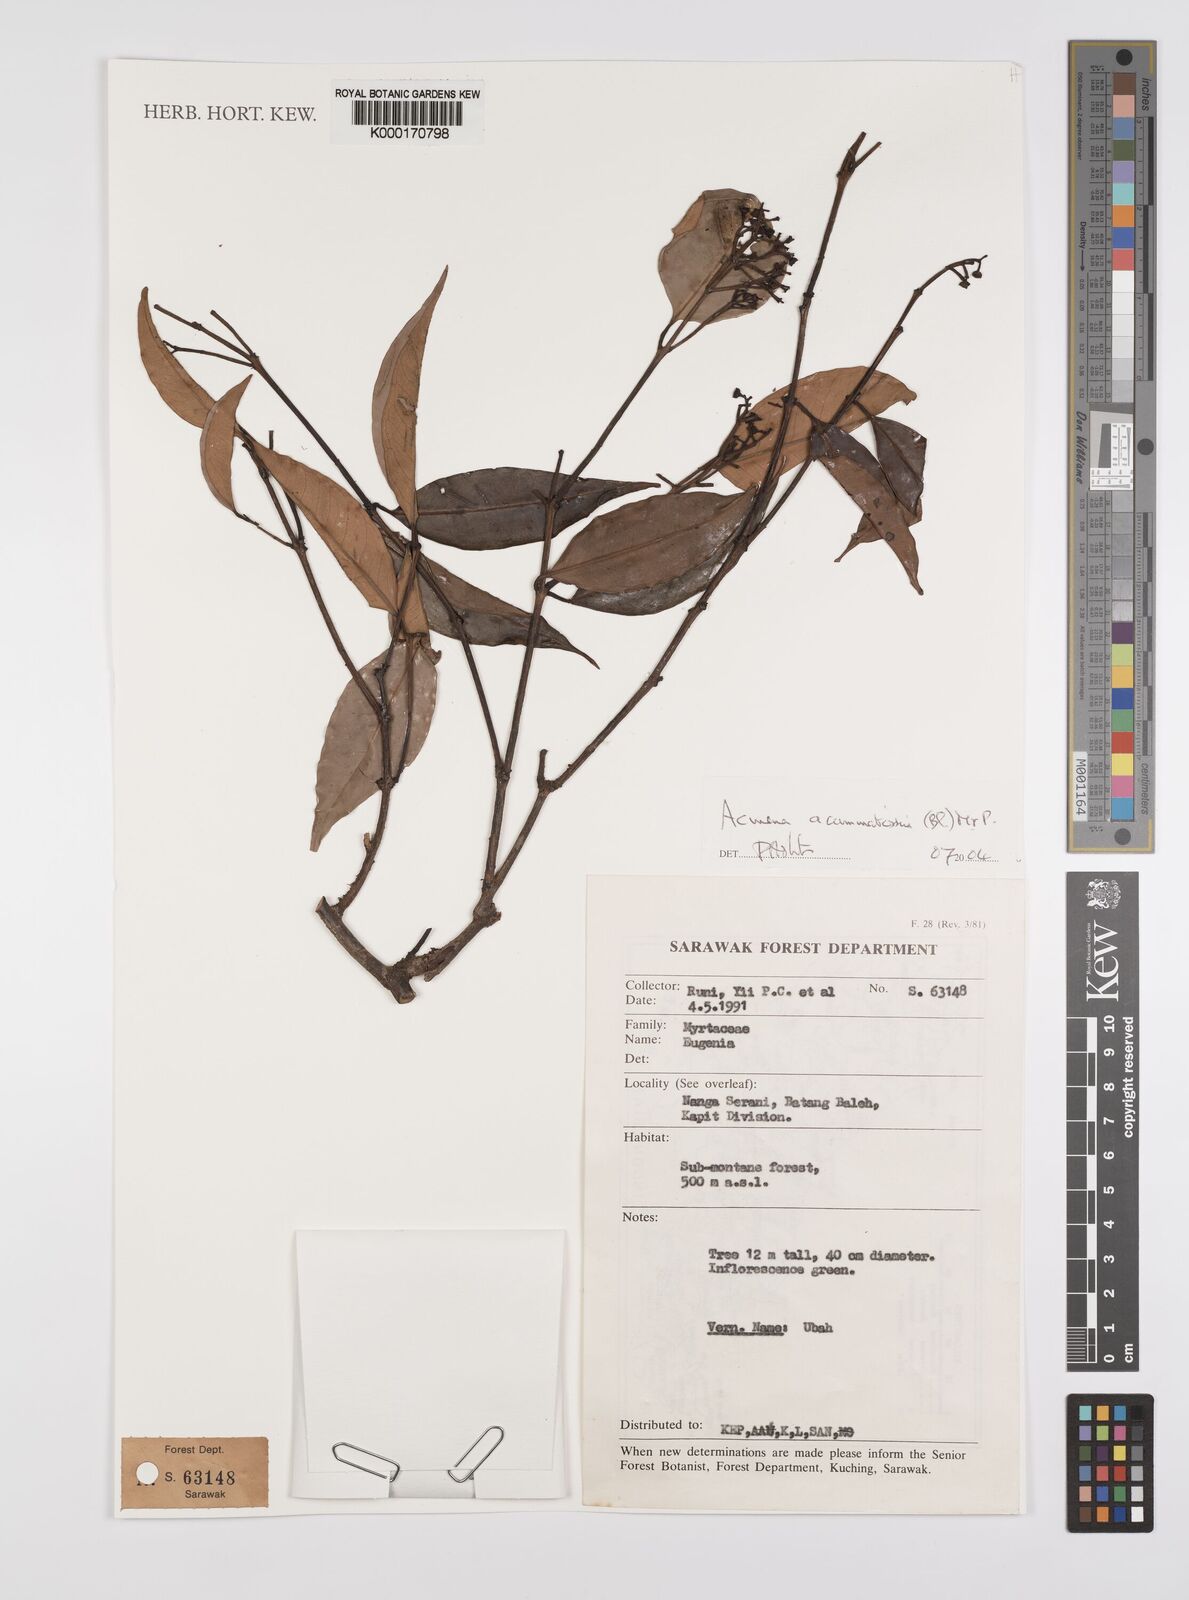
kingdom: Plantae
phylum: Tracheophyta
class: Magnoliopsida
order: Myrtales
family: Myrtaceae
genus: Syzygium
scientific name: Syzygium acuminatissimum
